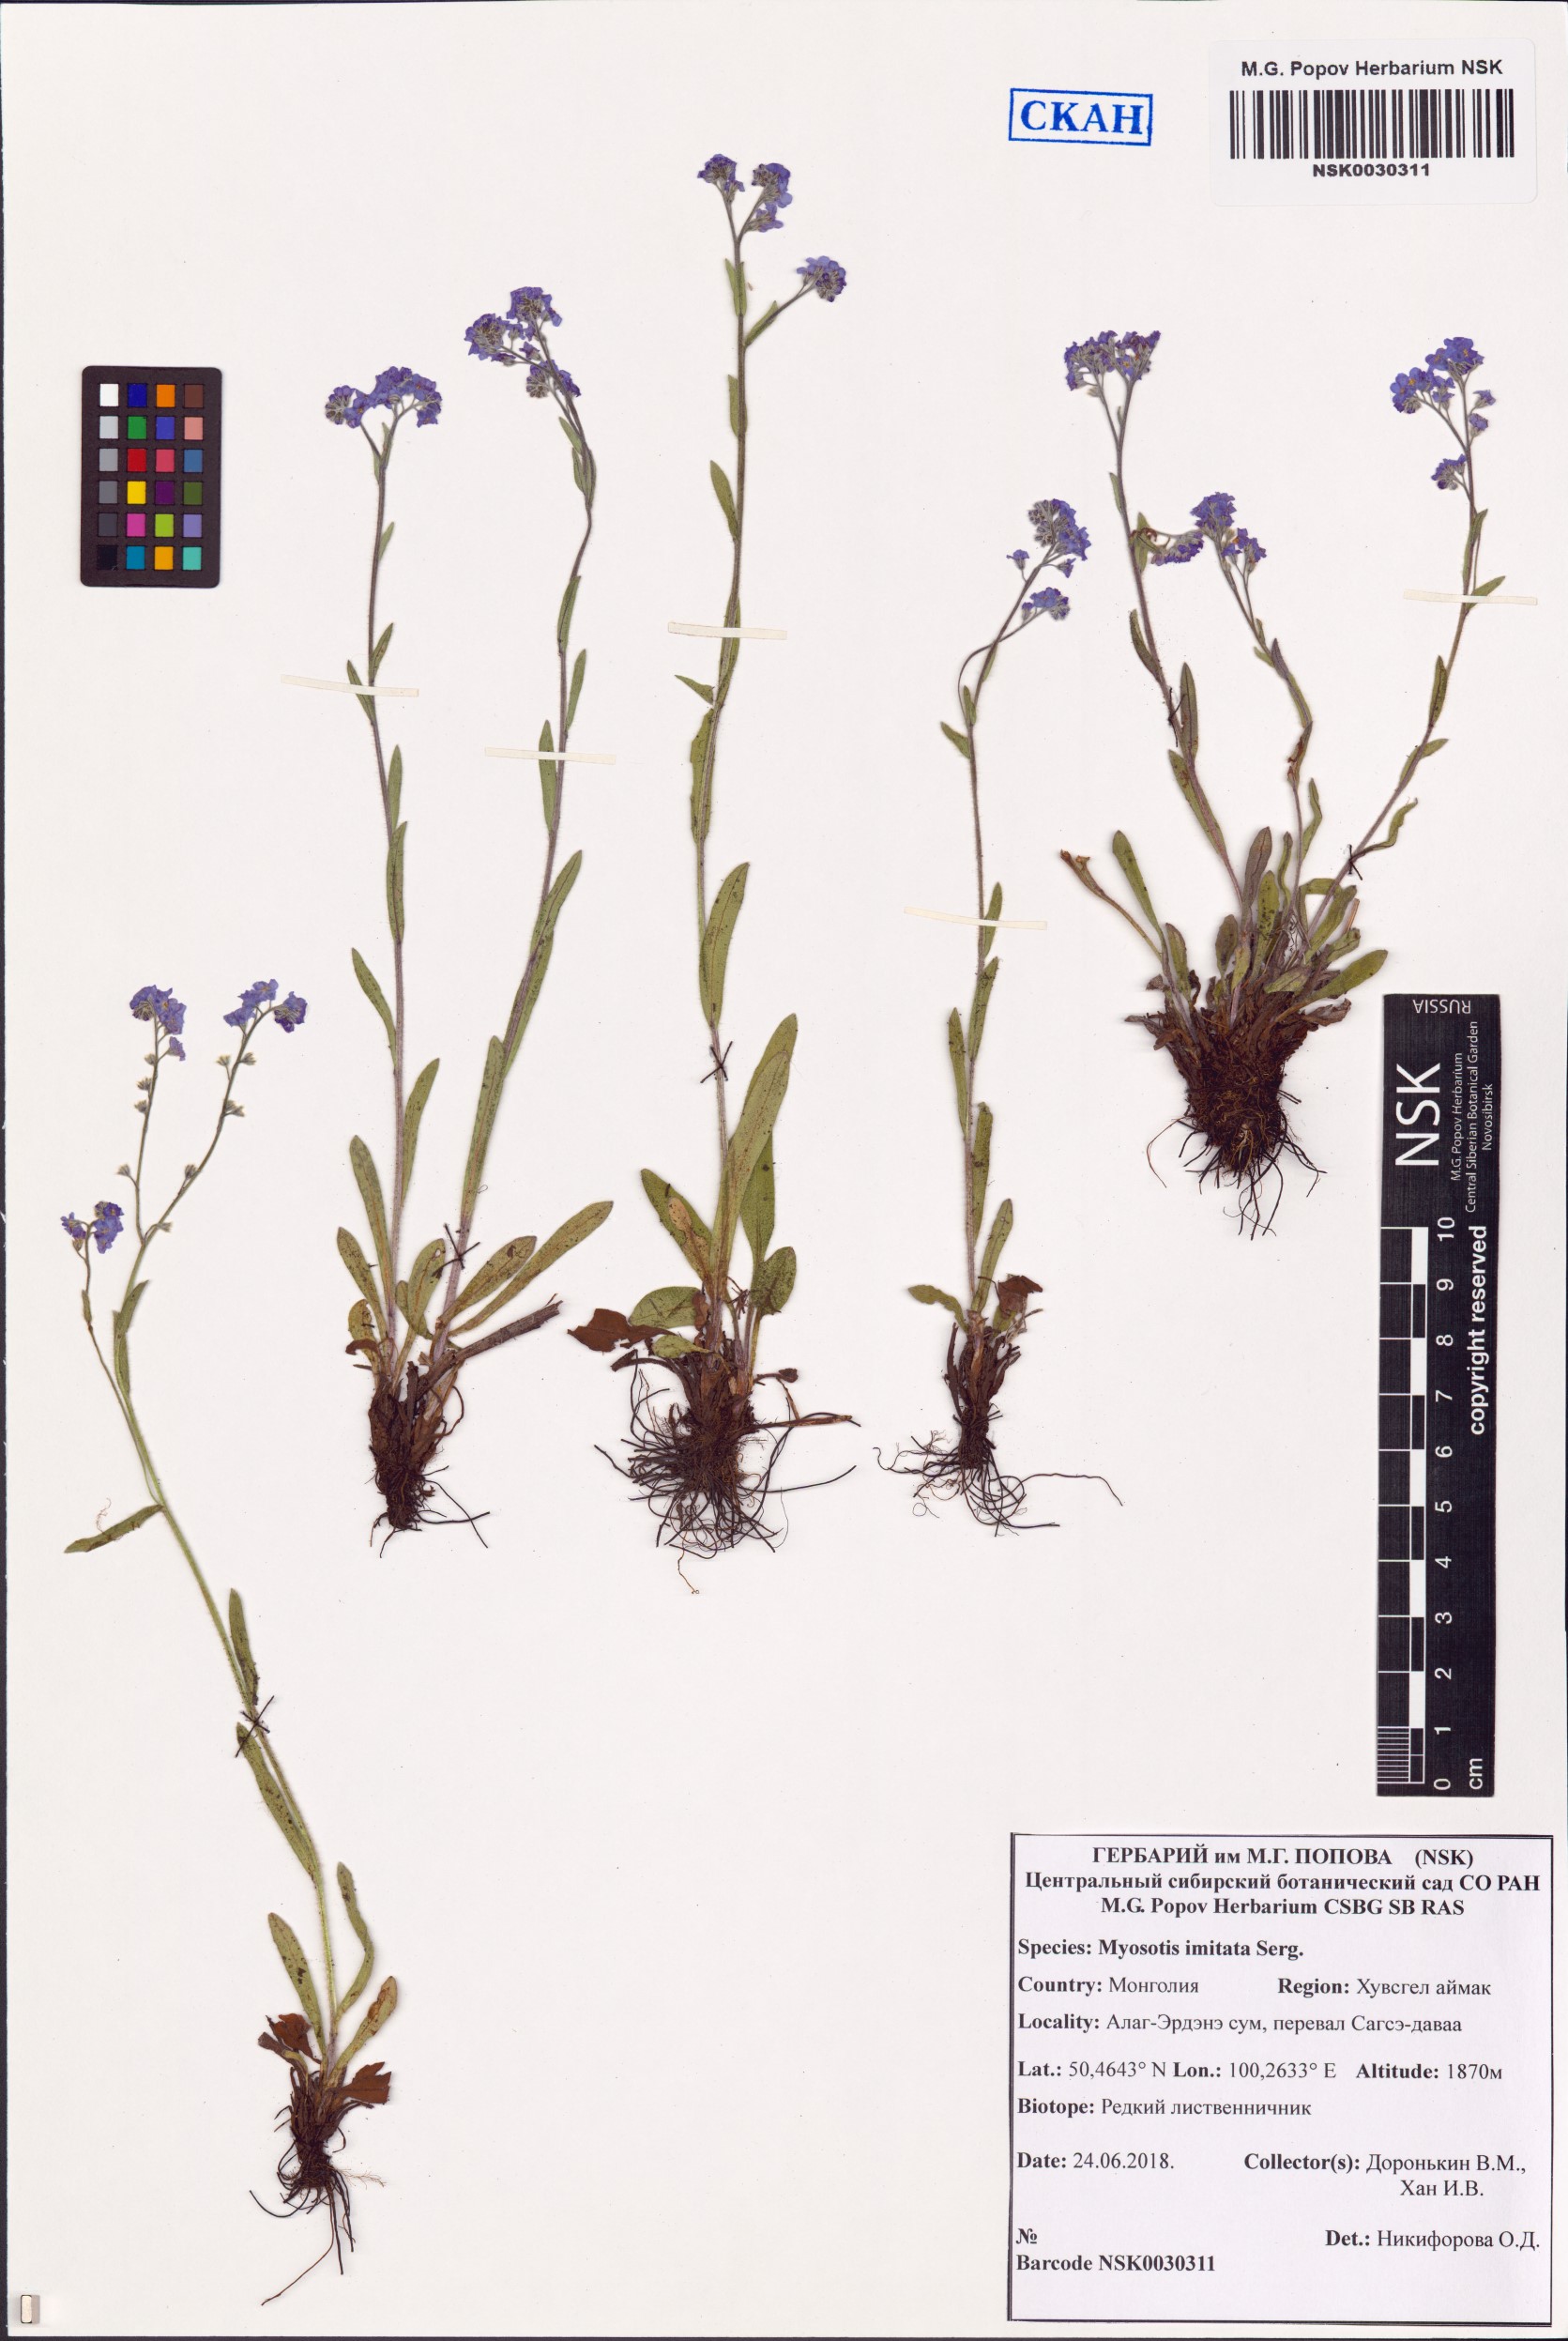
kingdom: Plantae
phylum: Tracheophyta
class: Magnoliopsida
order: Boraginales
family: Boraginaceae
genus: Myosotis
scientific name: Myosotis imitata
